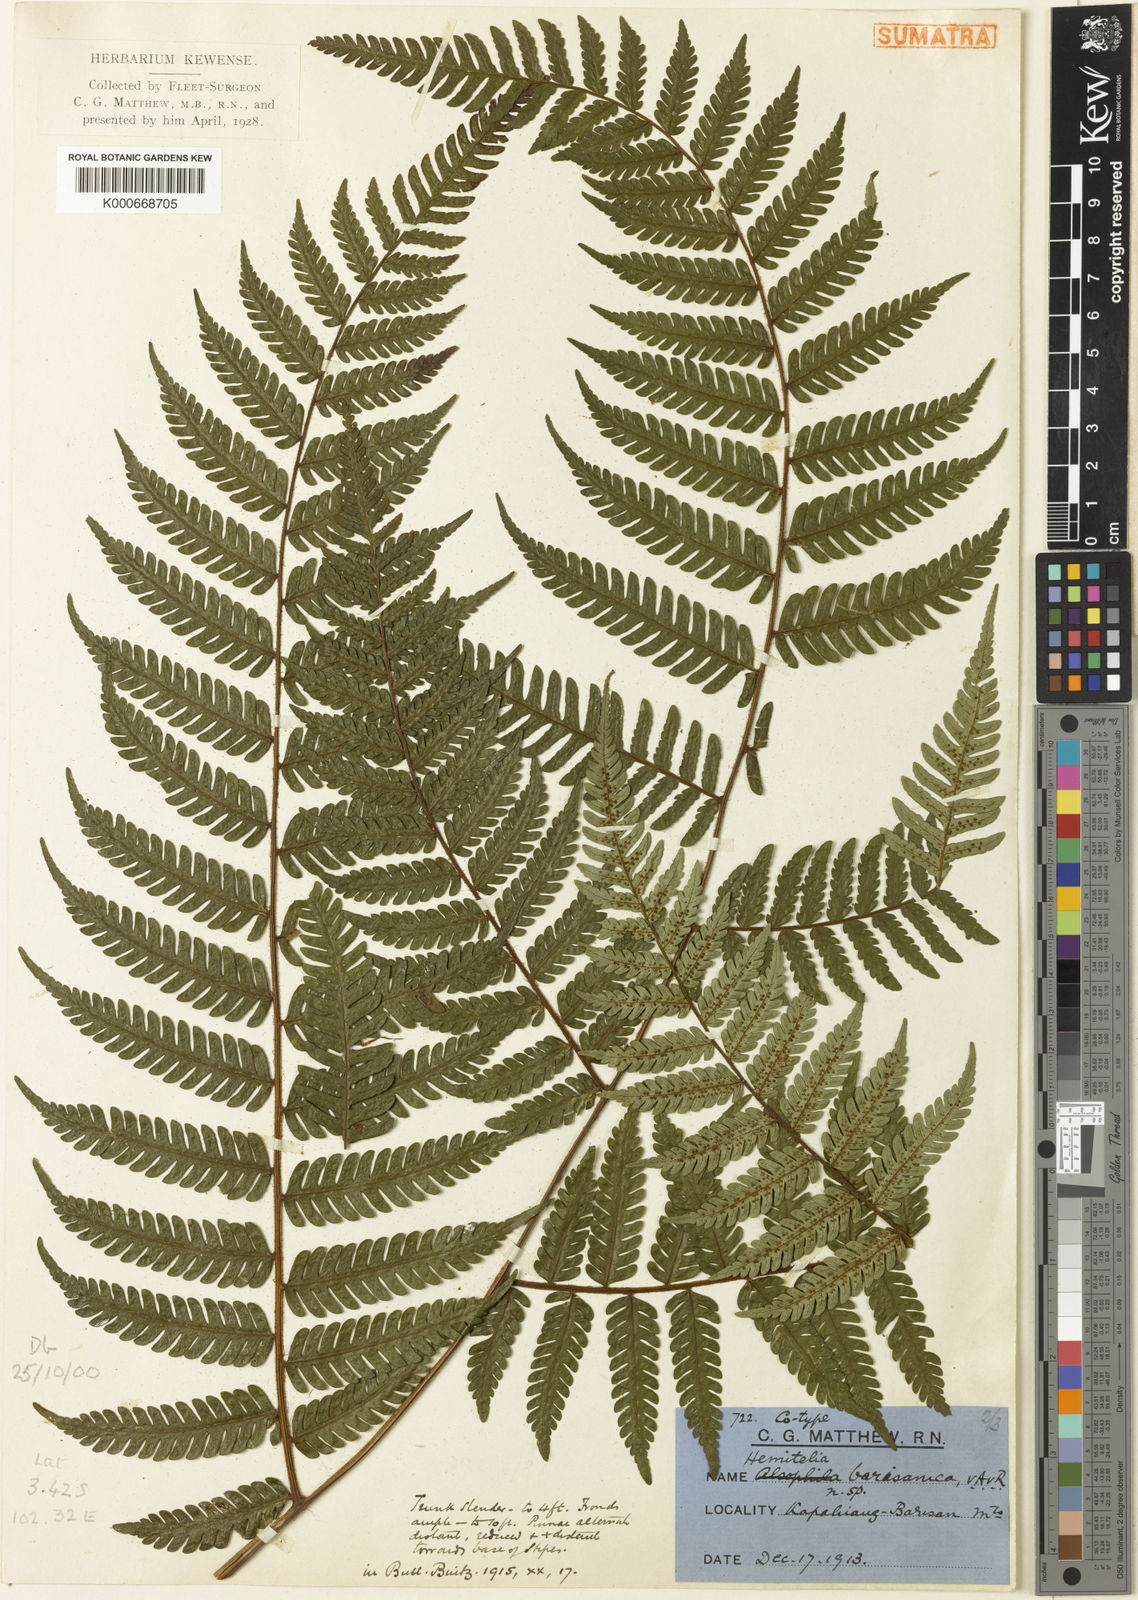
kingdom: Plantae
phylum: Tracheophyta
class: Polypodiopsida
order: Cyatheales
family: Cyatheaceae
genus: Alsophila
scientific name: Alsophila javanica
